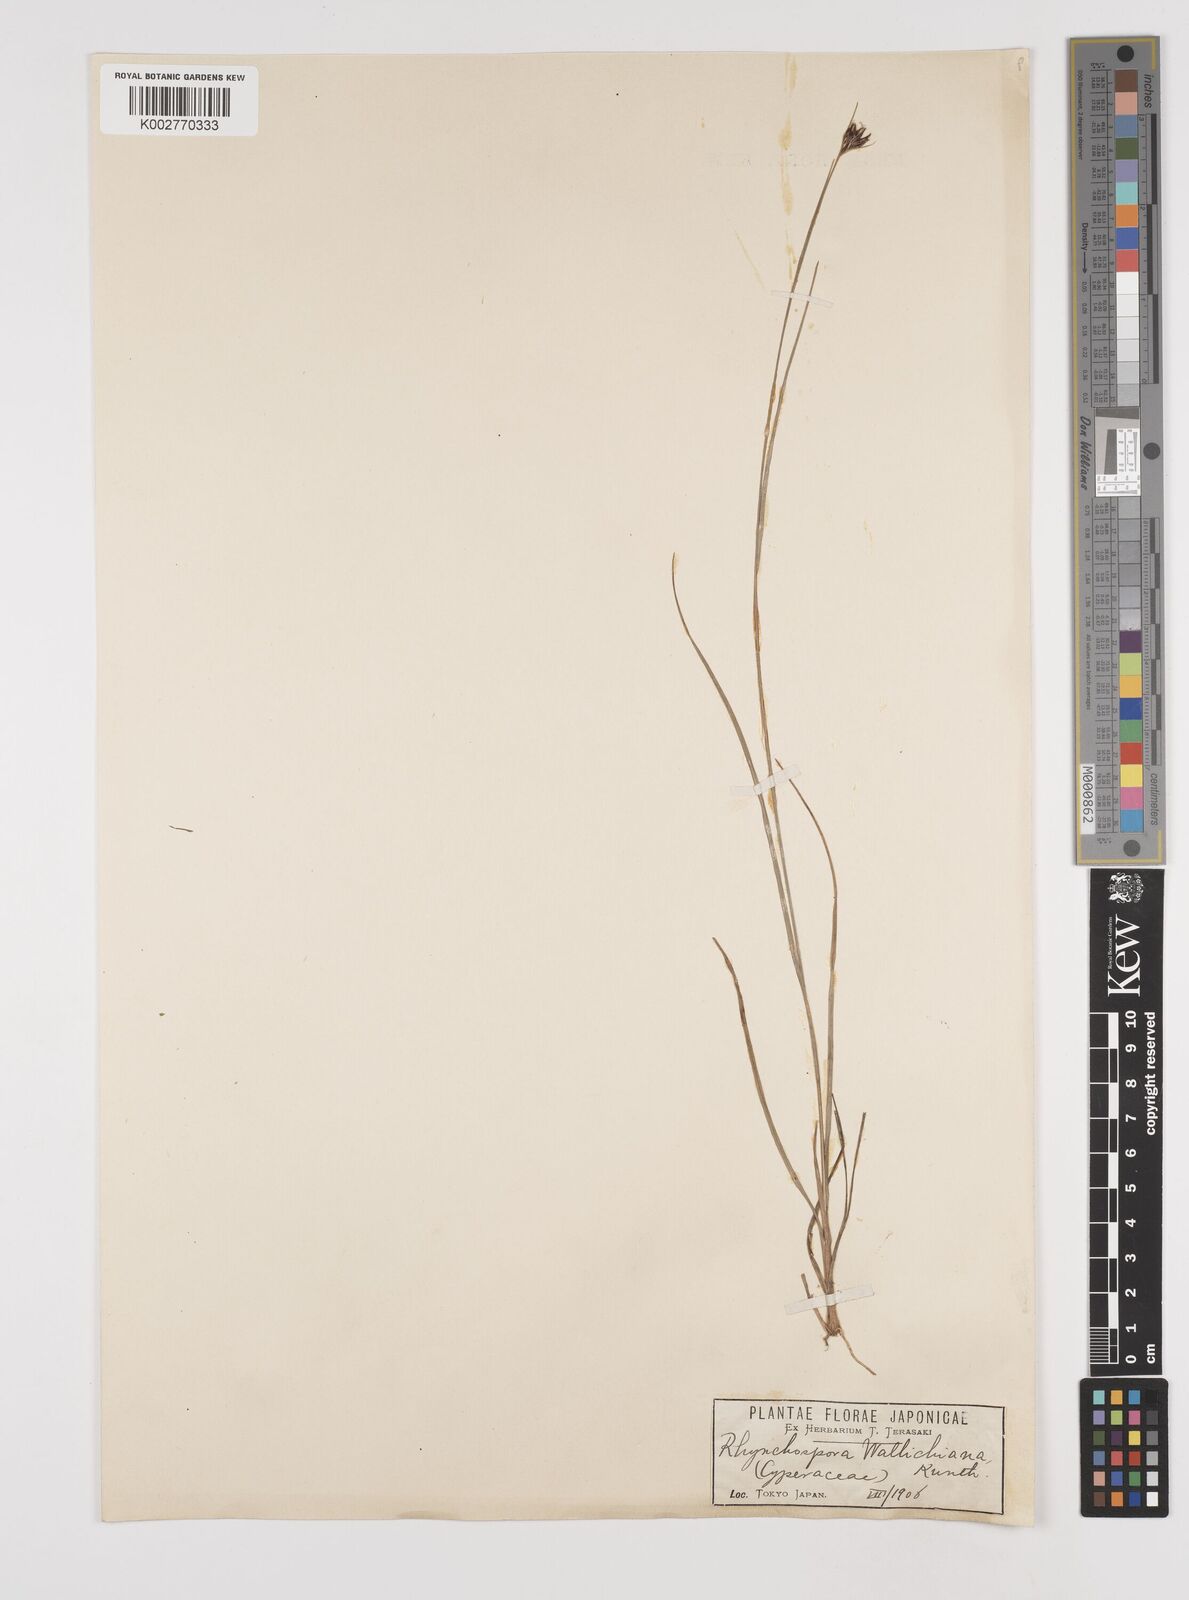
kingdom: Plantae
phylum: Tracheophyta
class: Liliopsida
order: Poales
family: Cyperaceae
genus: Rhynchospora
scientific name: Rhynchospora rubra
